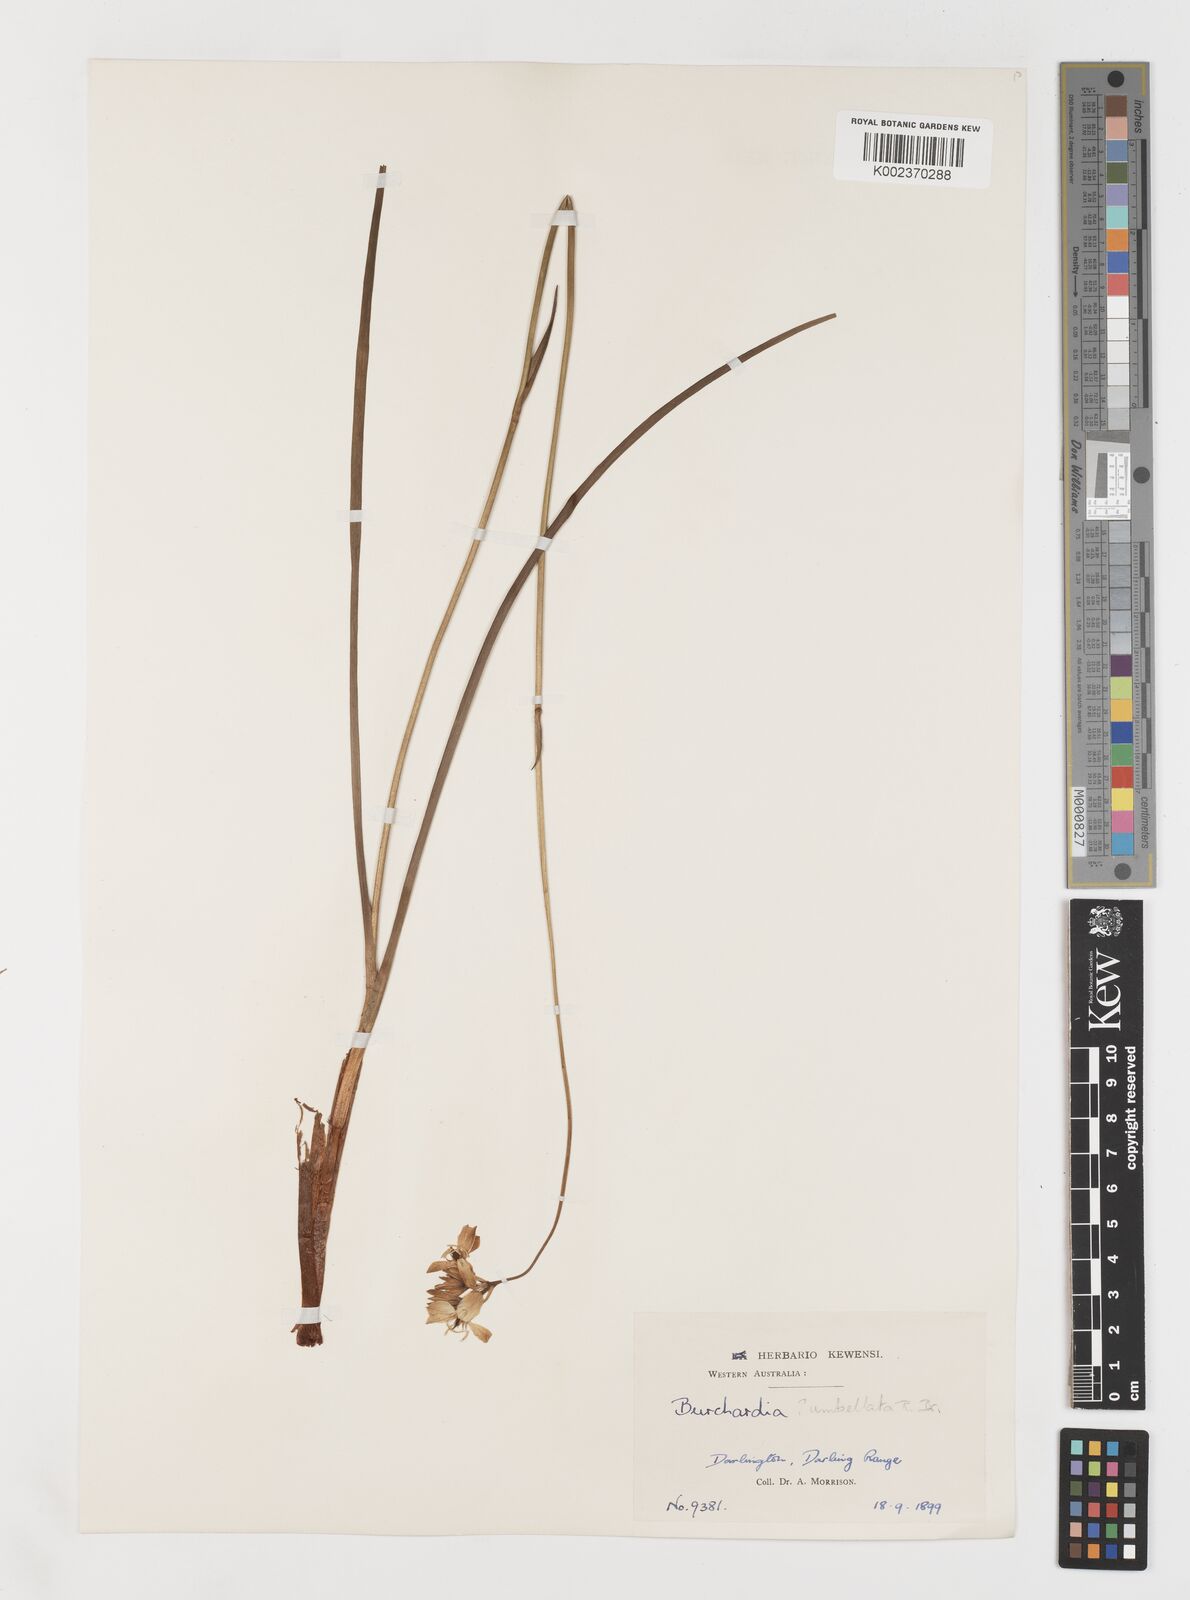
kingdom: Plantae
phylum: Tracheophyta
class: Liliopsida
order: Liliales
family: Colchicaceae
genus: Burchardia
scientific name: Burchardia umbellata
